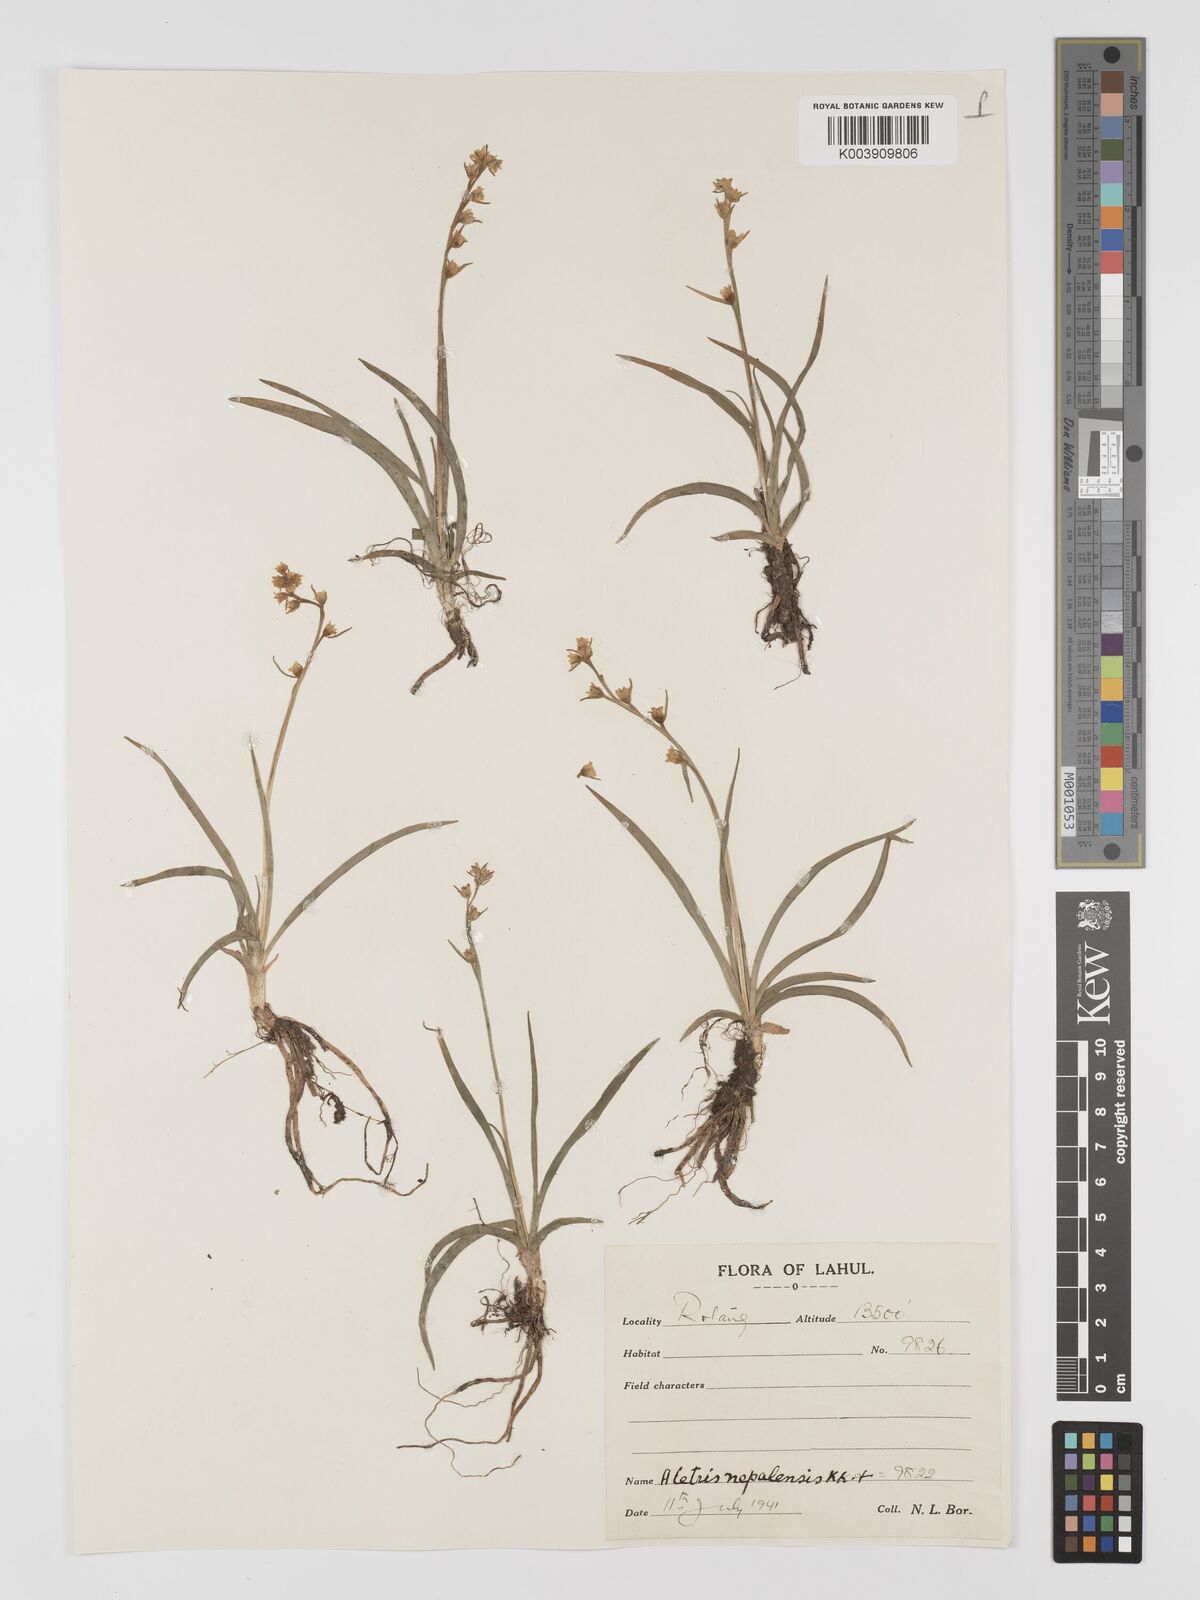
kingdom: Plantae
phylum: Tracheophyta
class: Liliopsida
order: Dioscoreales
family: Nartheciaceae
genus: Aletris
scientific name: Aletris pauciflora
